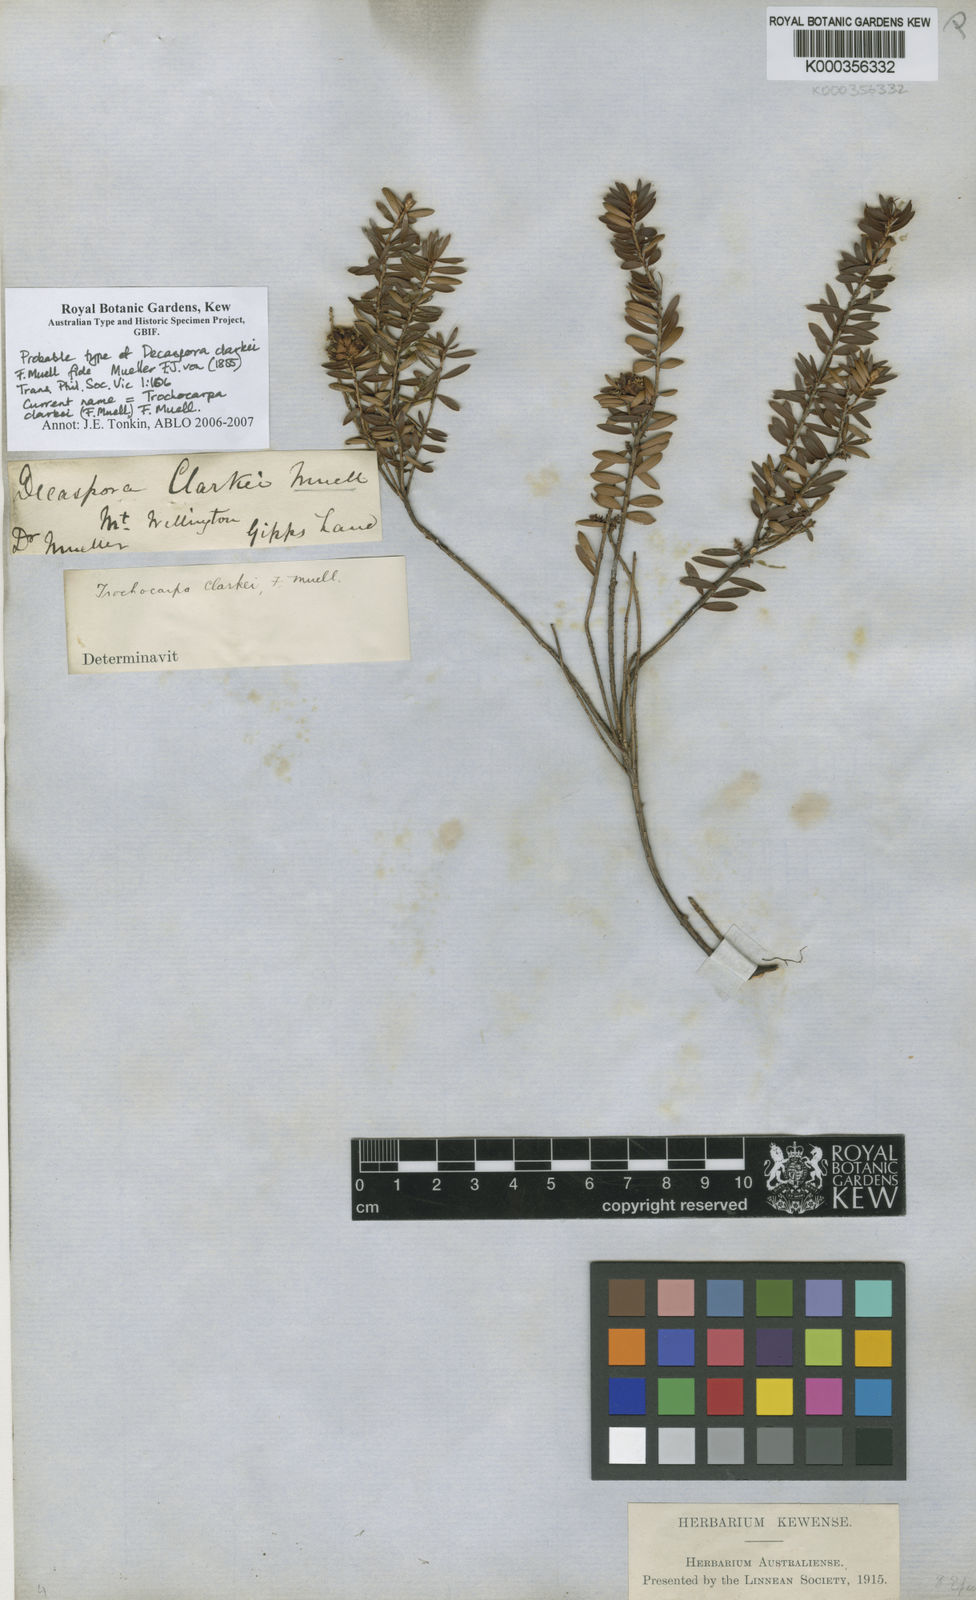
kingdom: Plantae
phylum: Tracheophyta
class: Magnoliopsida
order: Ericales
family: Ericaceae
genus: Trochocarpa
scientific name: Trochocarpa clarkei
